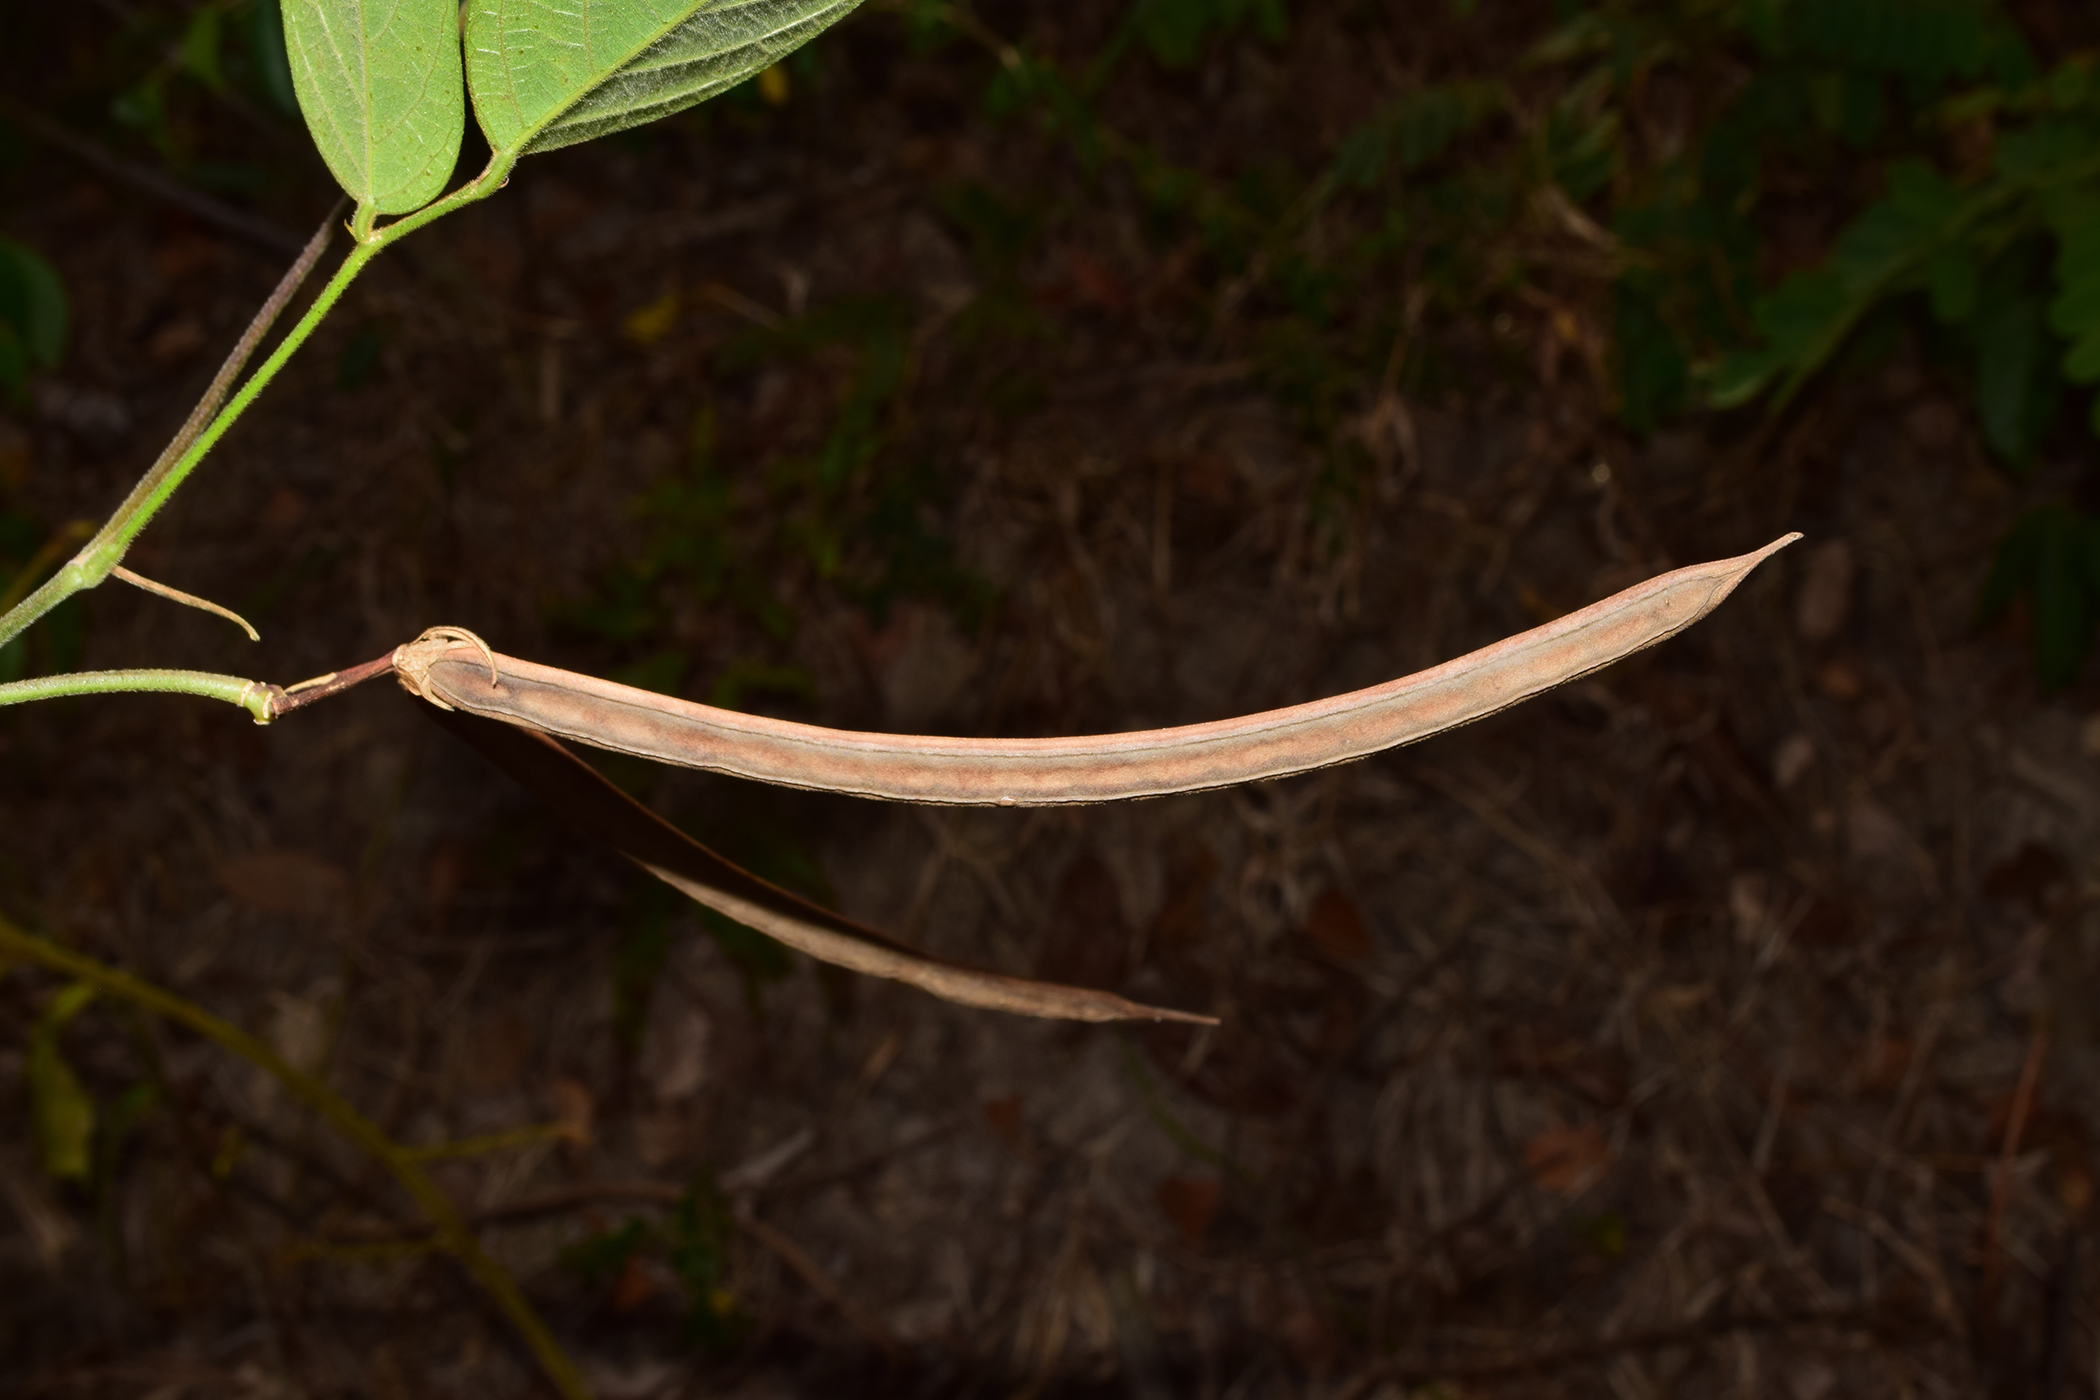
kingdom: Plantae
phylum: Tracheophyta
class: Magnoliopsida
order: Fabales
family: Fabaceae
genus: Centrosema
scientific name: Centrosema pubescens
